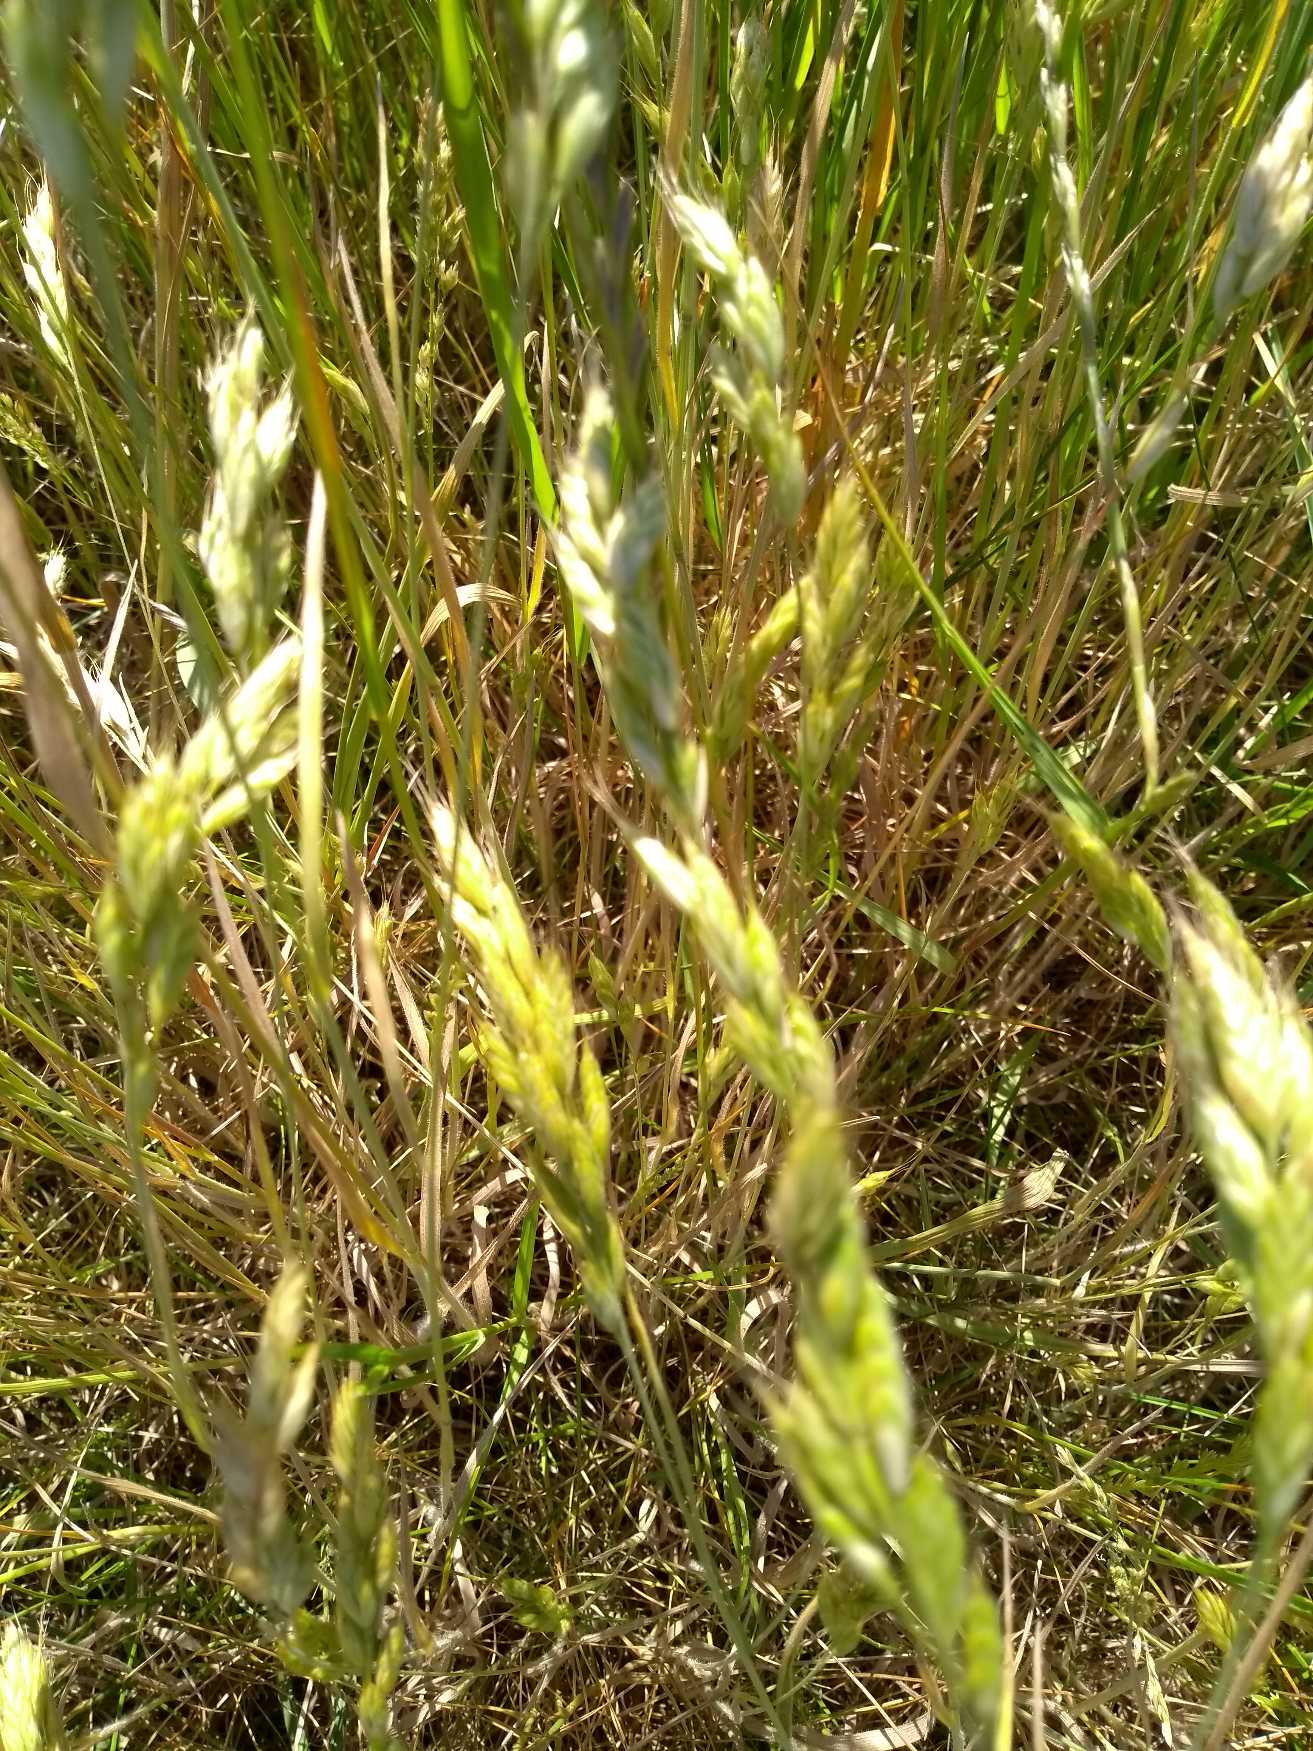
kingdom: Plantae
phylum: Tracheophyta
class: Liliopsida
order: Poales
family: Poaceae
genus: Bromus
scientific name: Bromus hordeaceus
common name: Blød hejre
